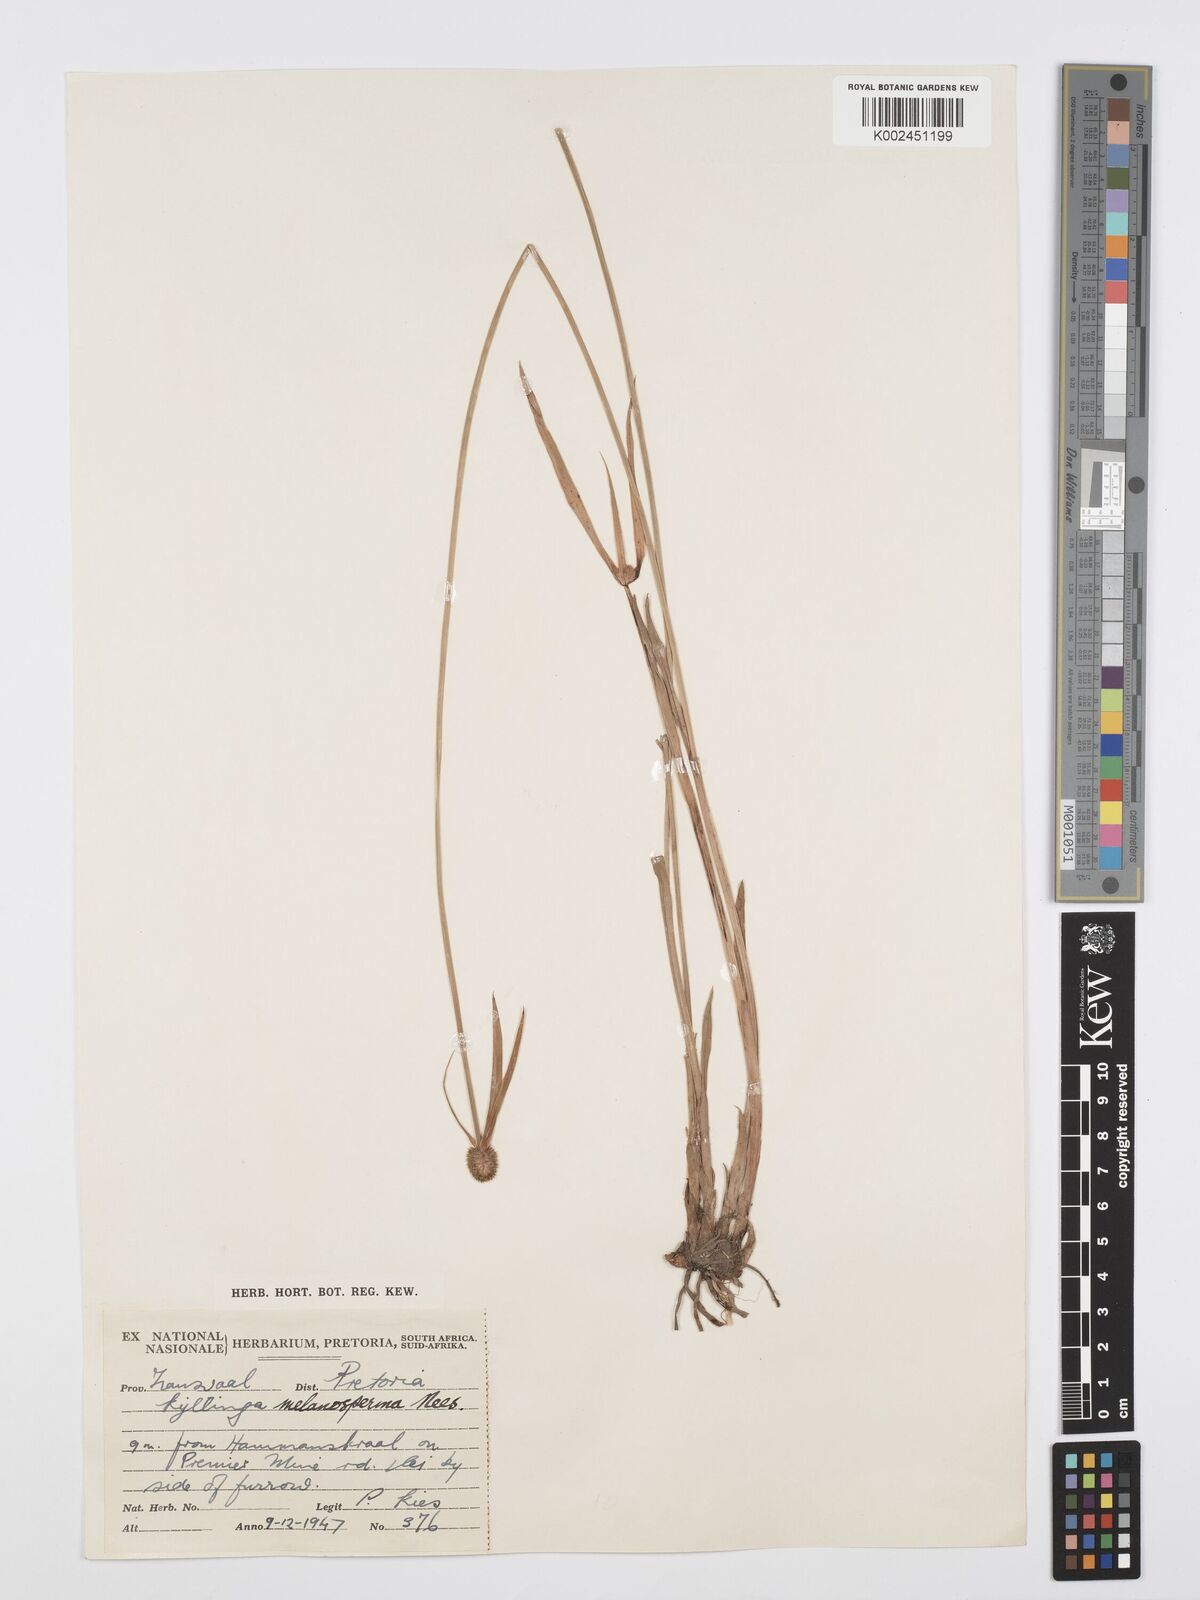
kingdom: Plantae
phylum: Tracheophyta
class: Liliopsida
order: Poales
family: Cyperaceae
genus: Cyperus
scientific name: Cyperus melanospermus
